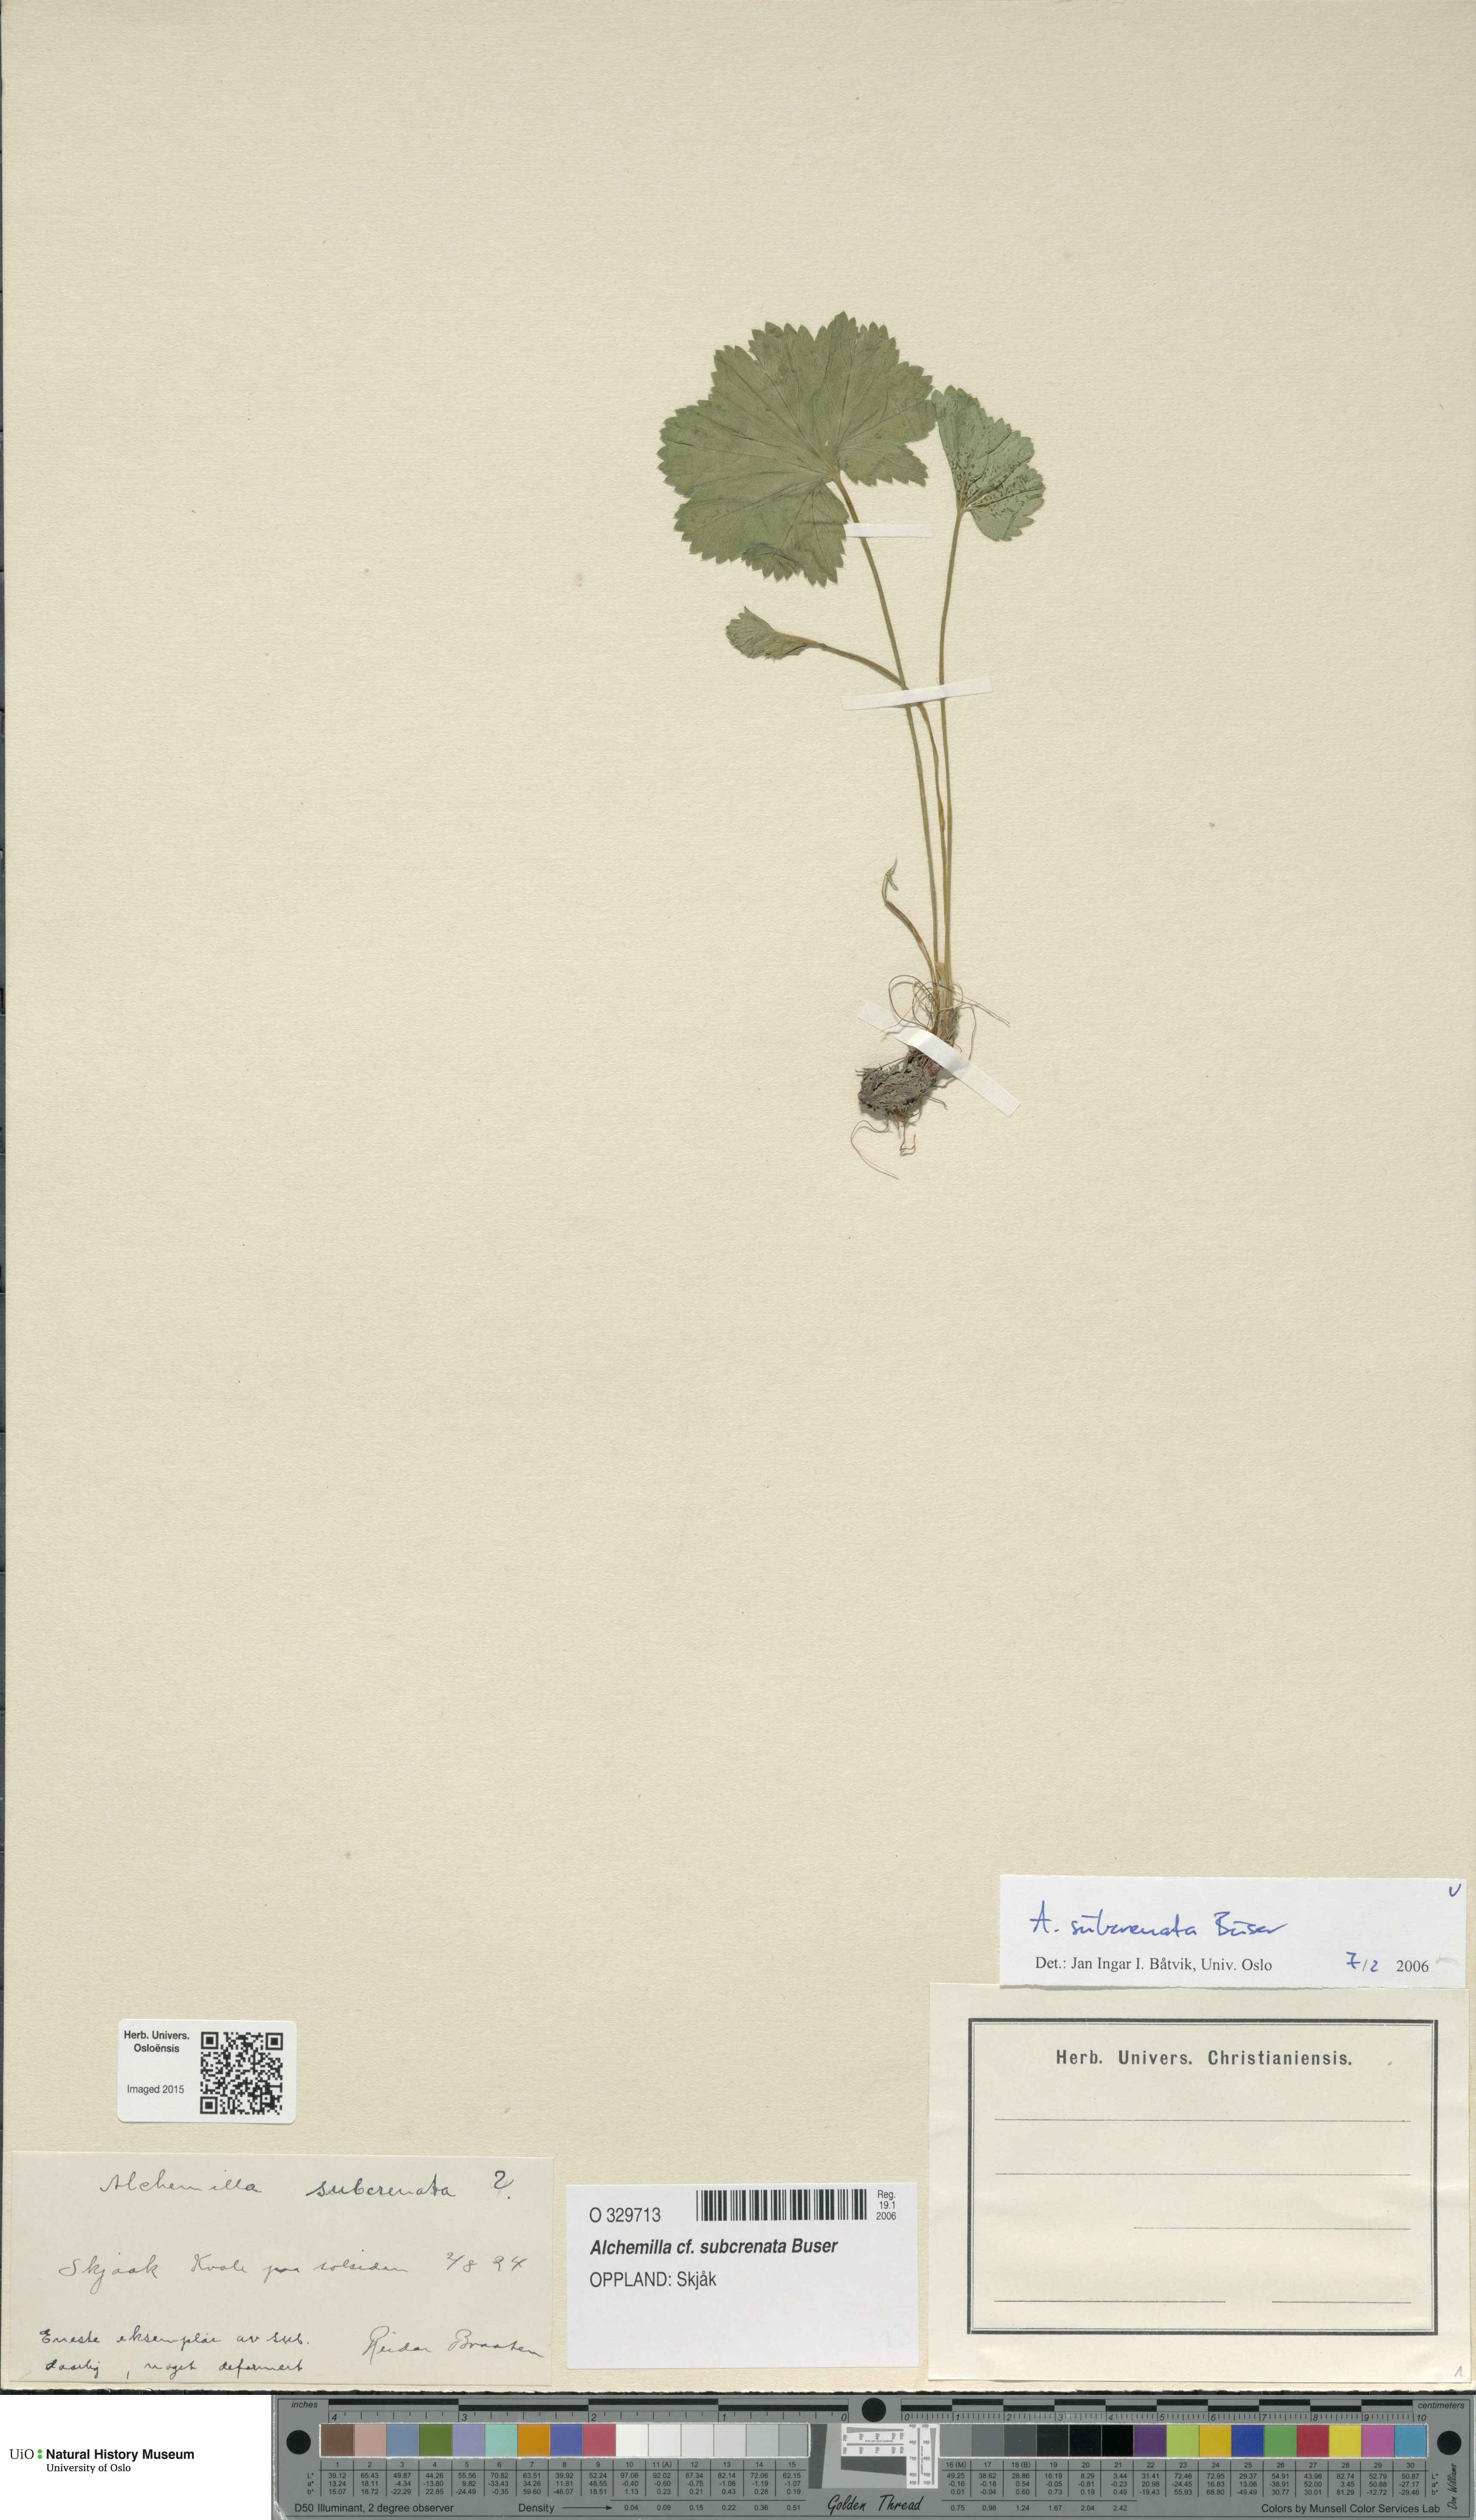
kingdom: Plantae
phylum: Tracheophyta
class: Magnoliopsida
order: Rosales
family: Rosaceae
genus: Alchemilla
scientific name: Alchemilla subcrenata
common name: Broadtooth lady's mantle
